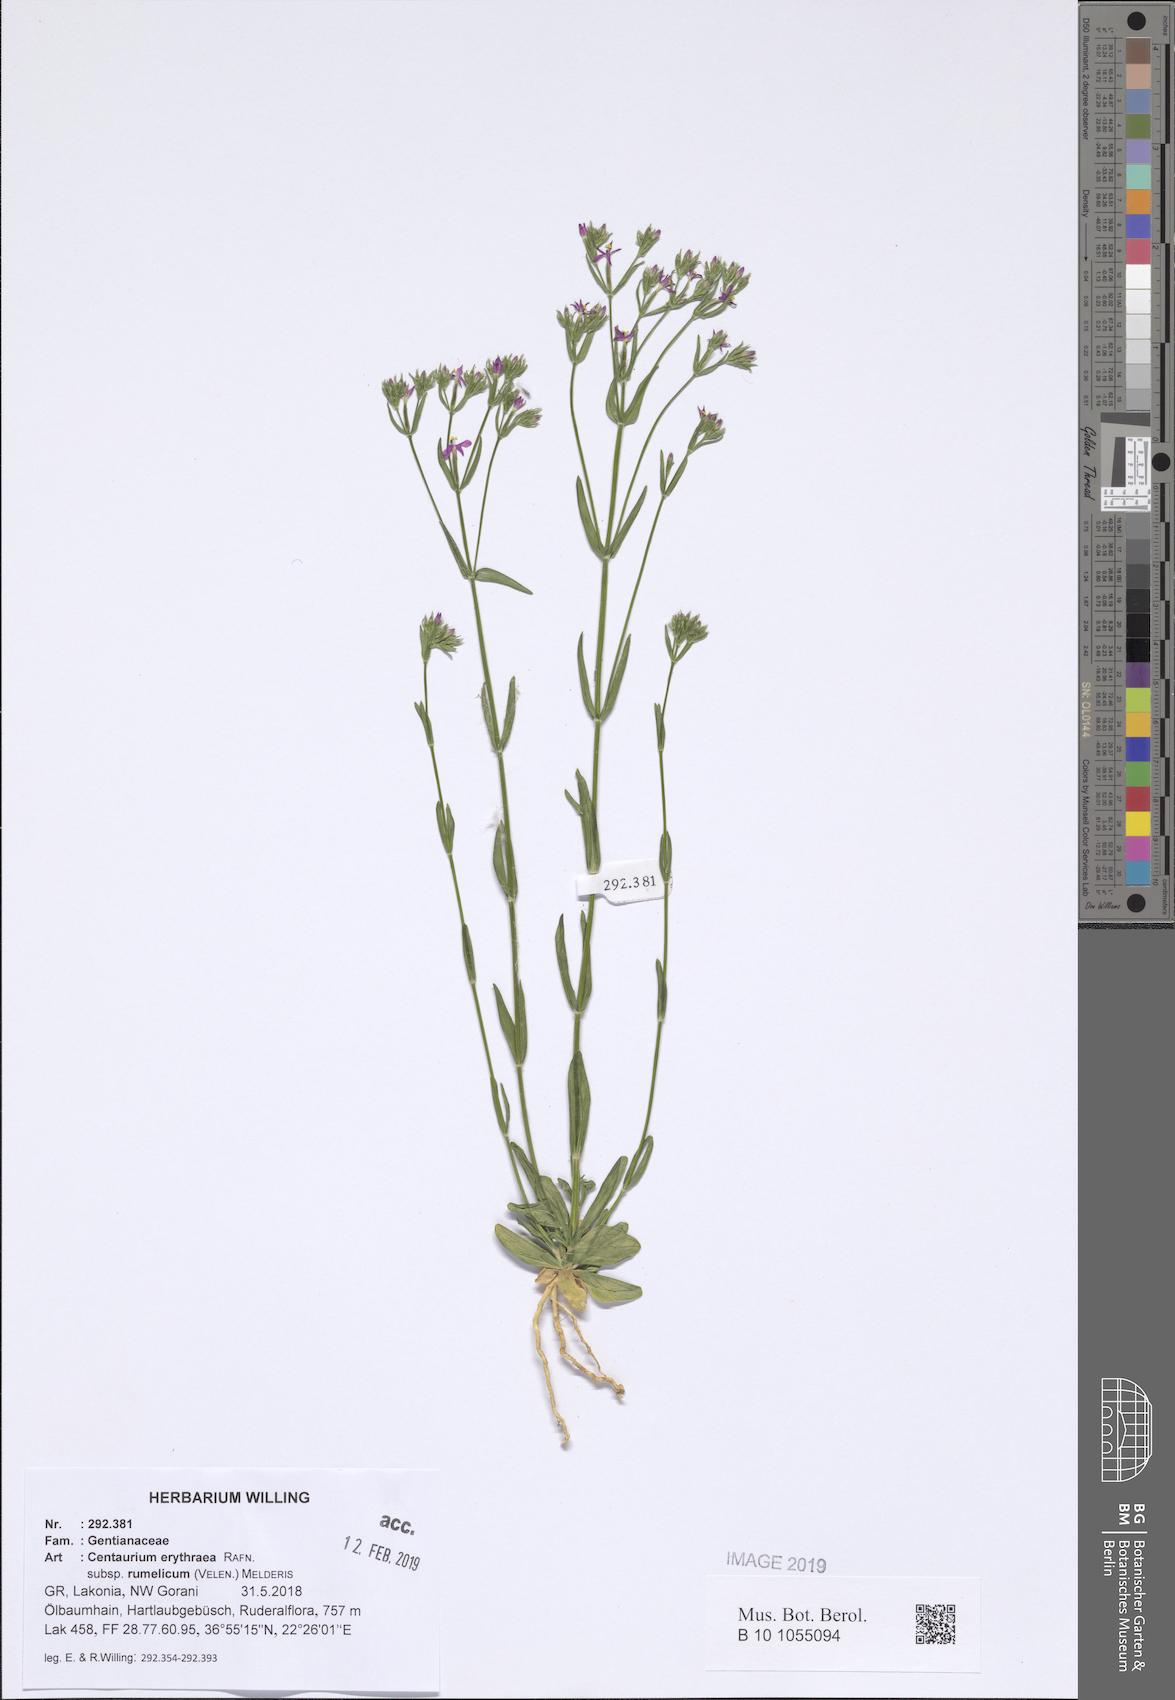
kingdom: Plantae
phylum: Tracheophyta
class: Magnoliopsida
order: Gentianales
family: Gentianaceae
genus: Centaurium
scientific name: Centaurium erythraea
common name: Common centaury
